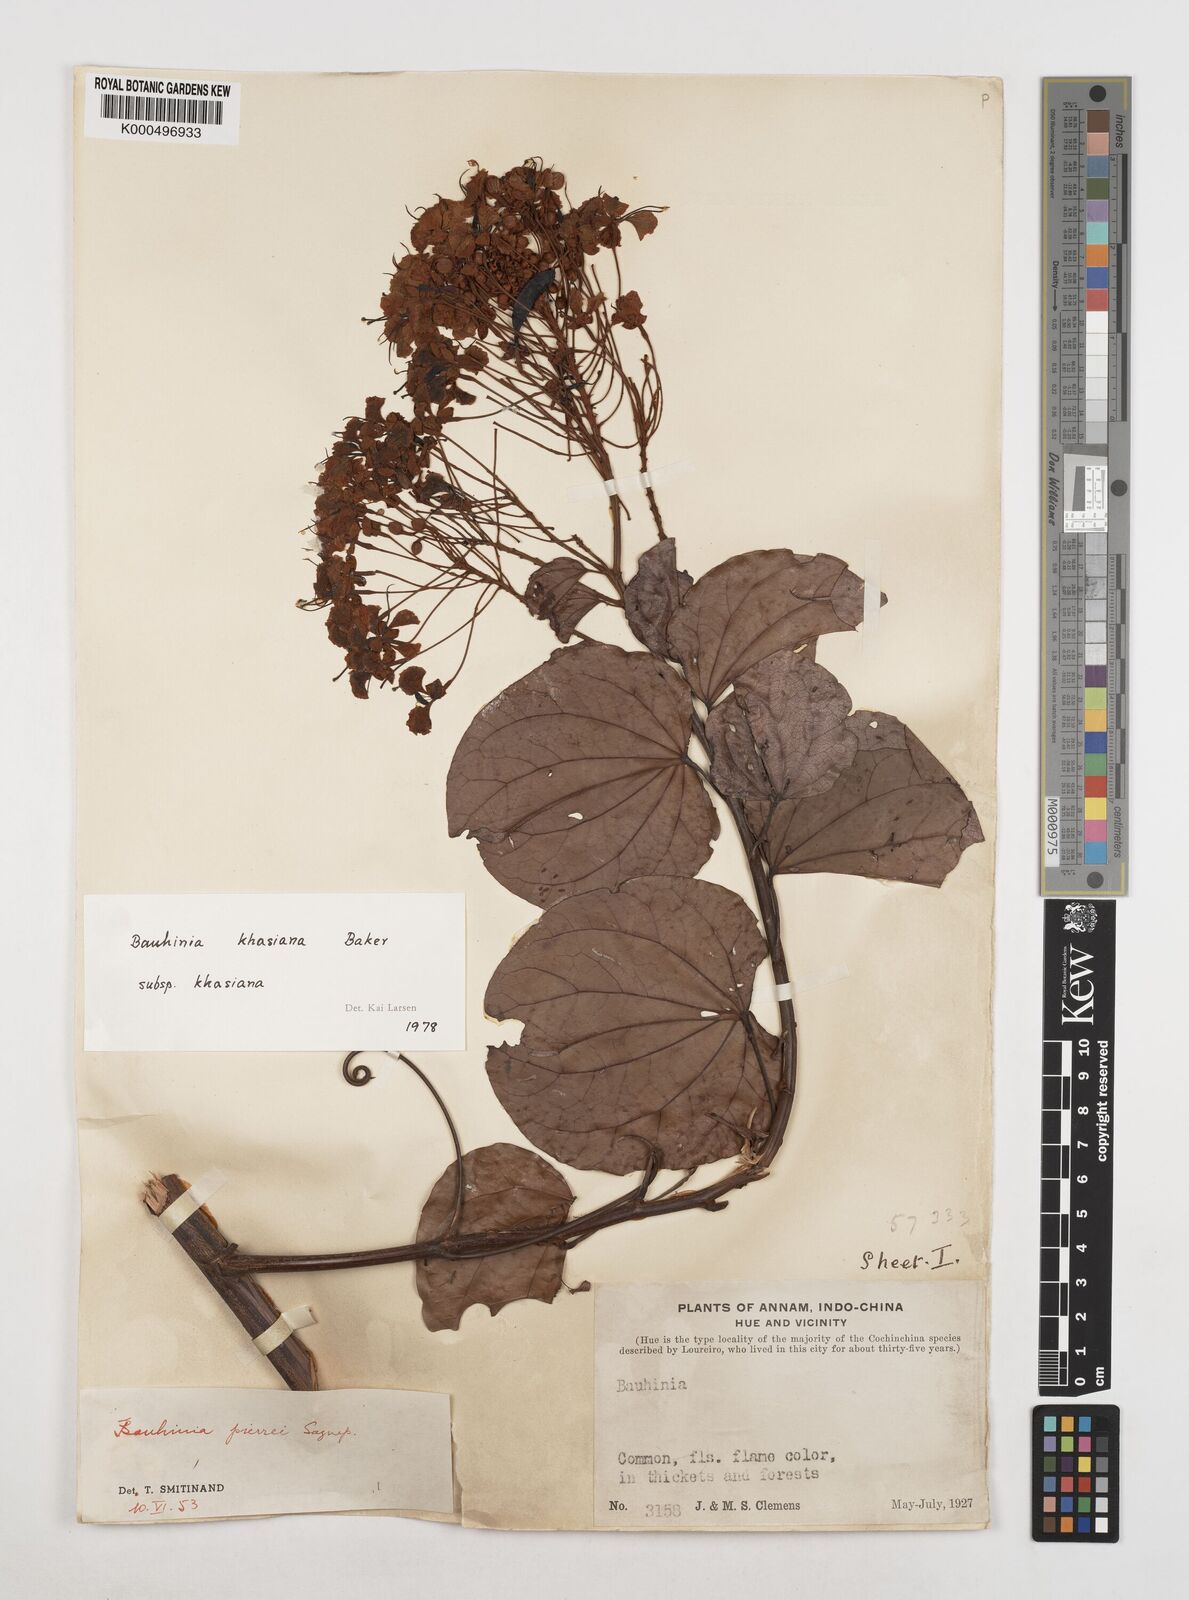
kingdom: Plantae
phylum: Tracheophyta
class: Magnoliopsida
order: Fabales
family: Fabaceae
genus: Bauhinia
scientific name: Bauhinia
